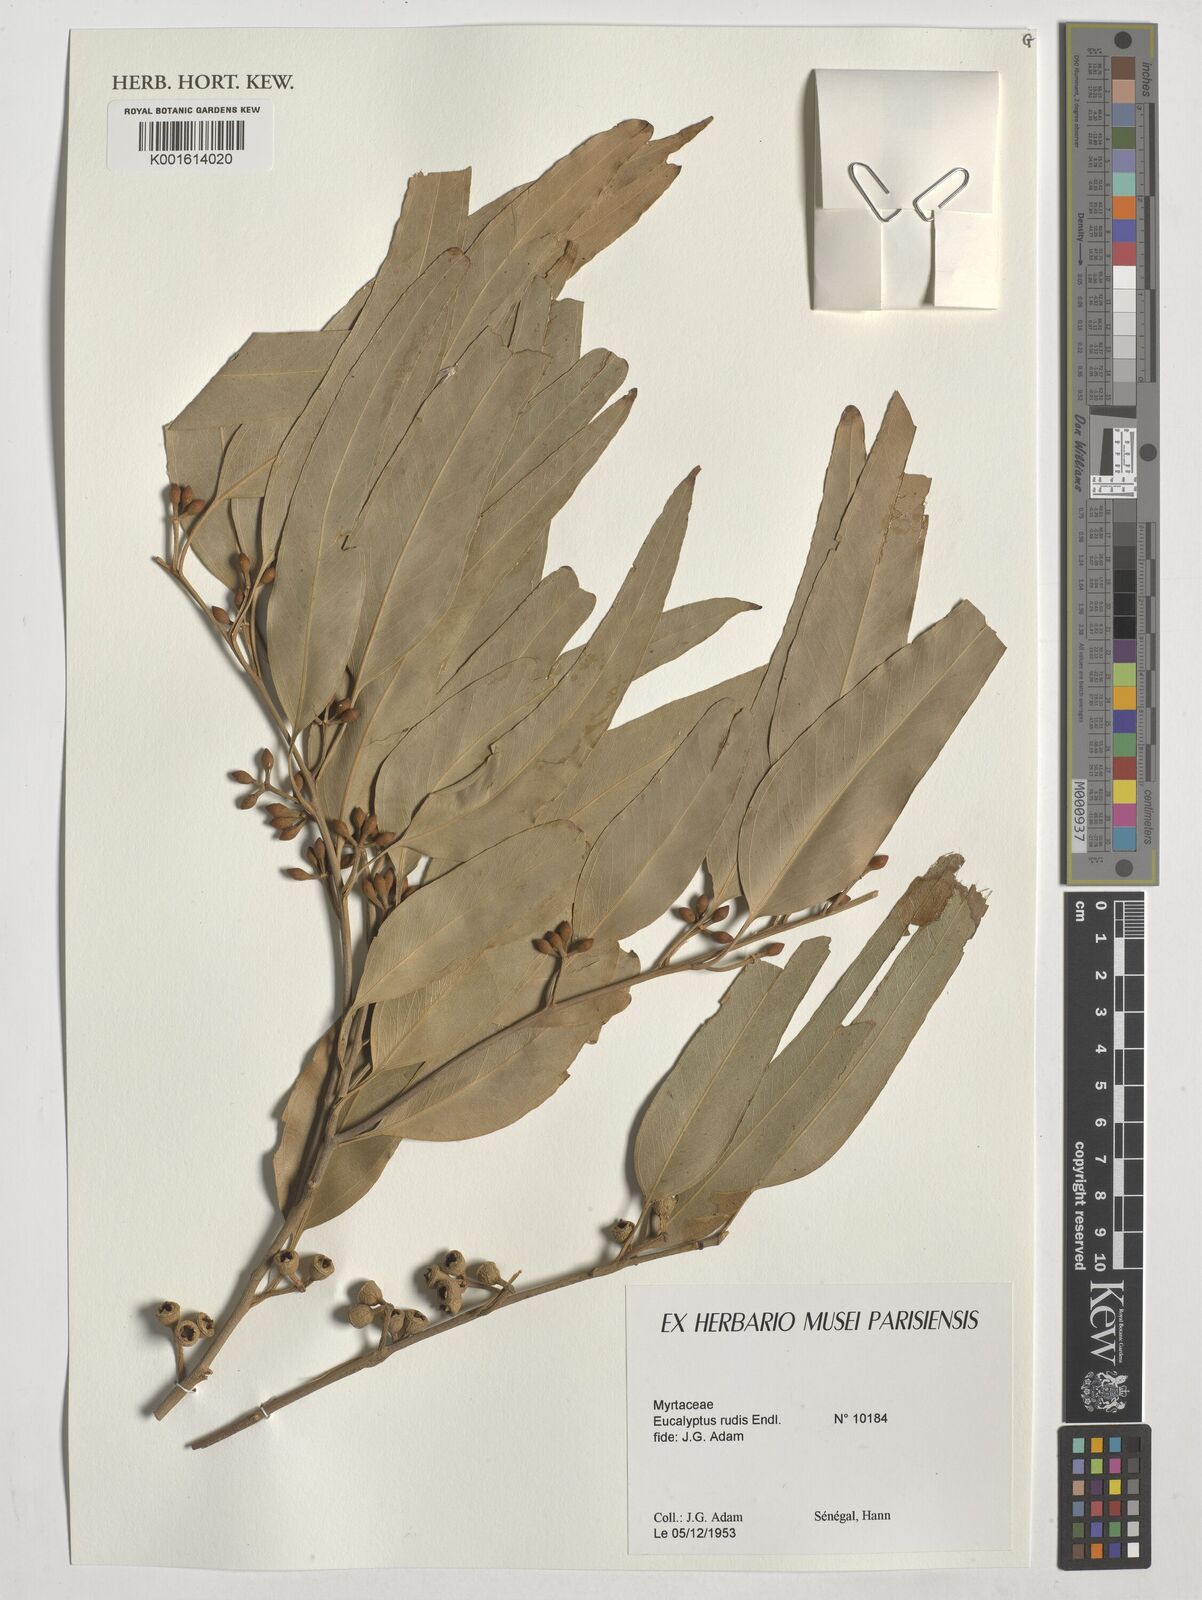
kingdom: Plantae
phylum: Tracheophyta
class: Magnoliopsida
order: Myrtales
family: Myrtaceae
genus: Eucalyptus
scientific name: Eucalyptus rudis
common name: Flooded gum
